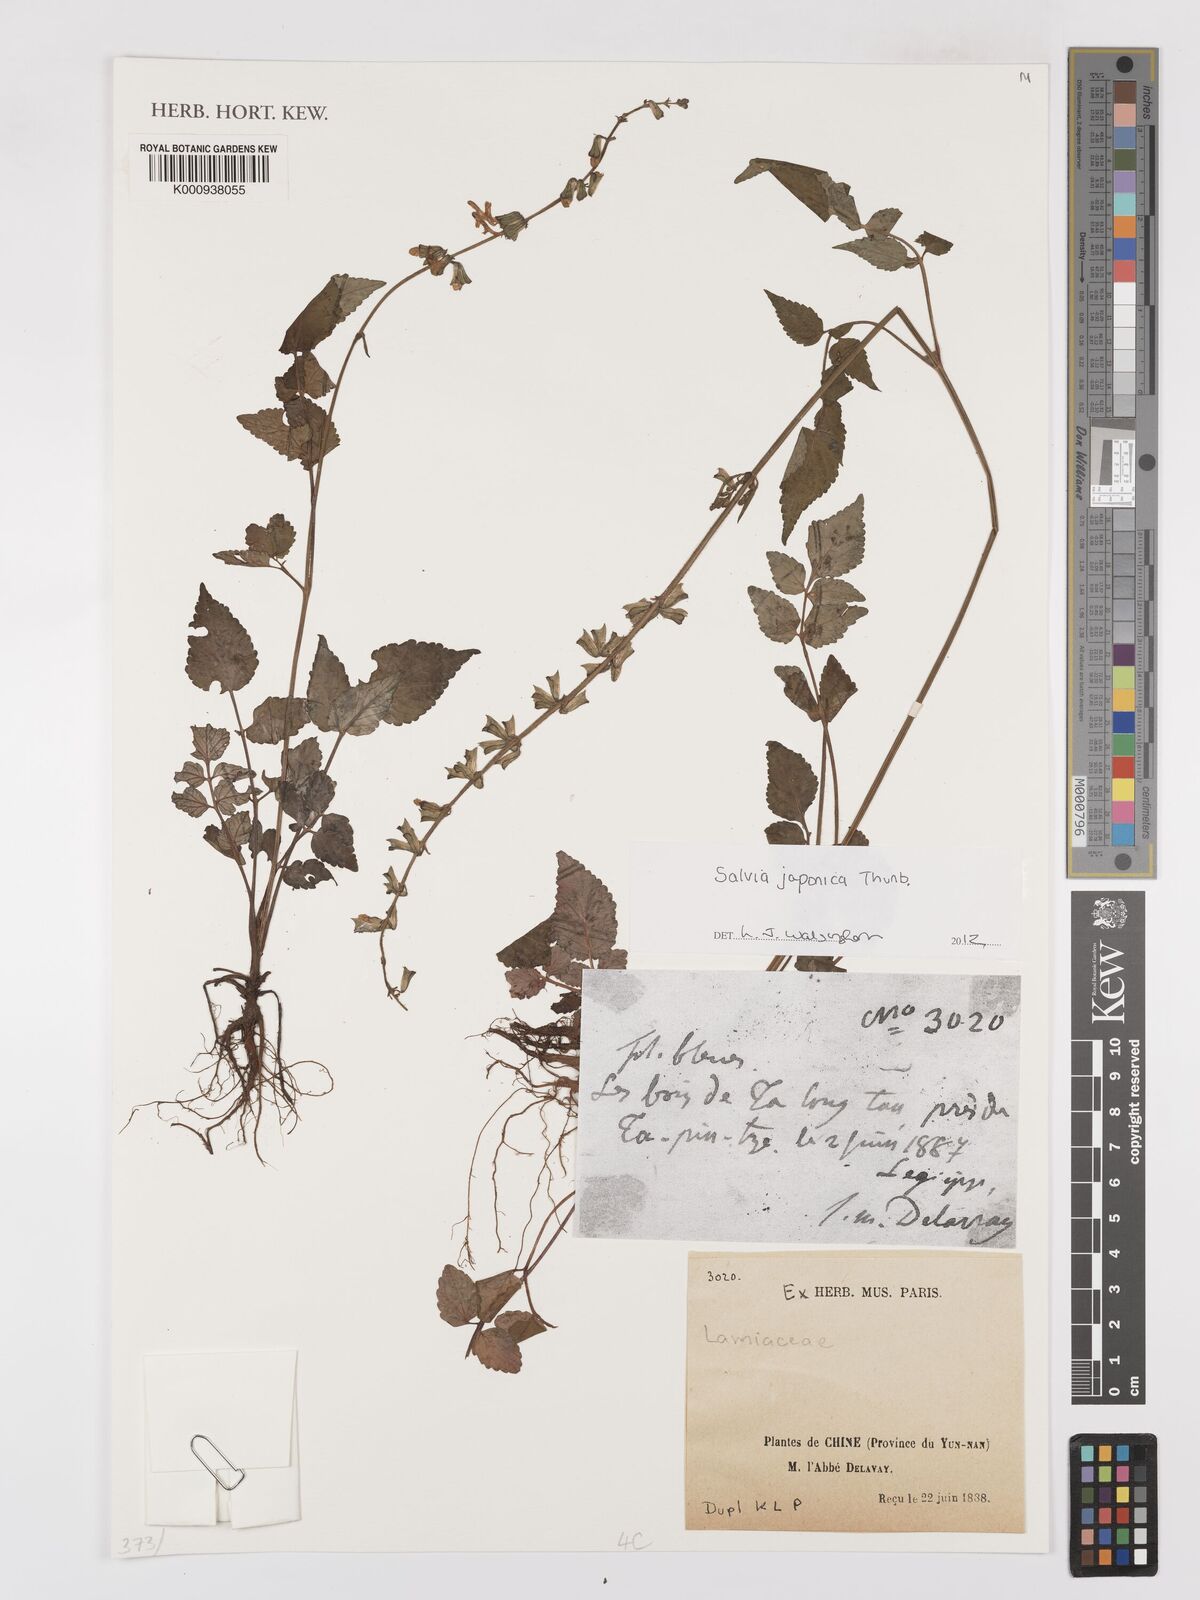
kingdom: Plantae
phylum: Tracheophyta
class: Magnoliopsida
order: Lamiales
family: Lamiaceae
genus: Salvia
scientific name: Salvia japonica
